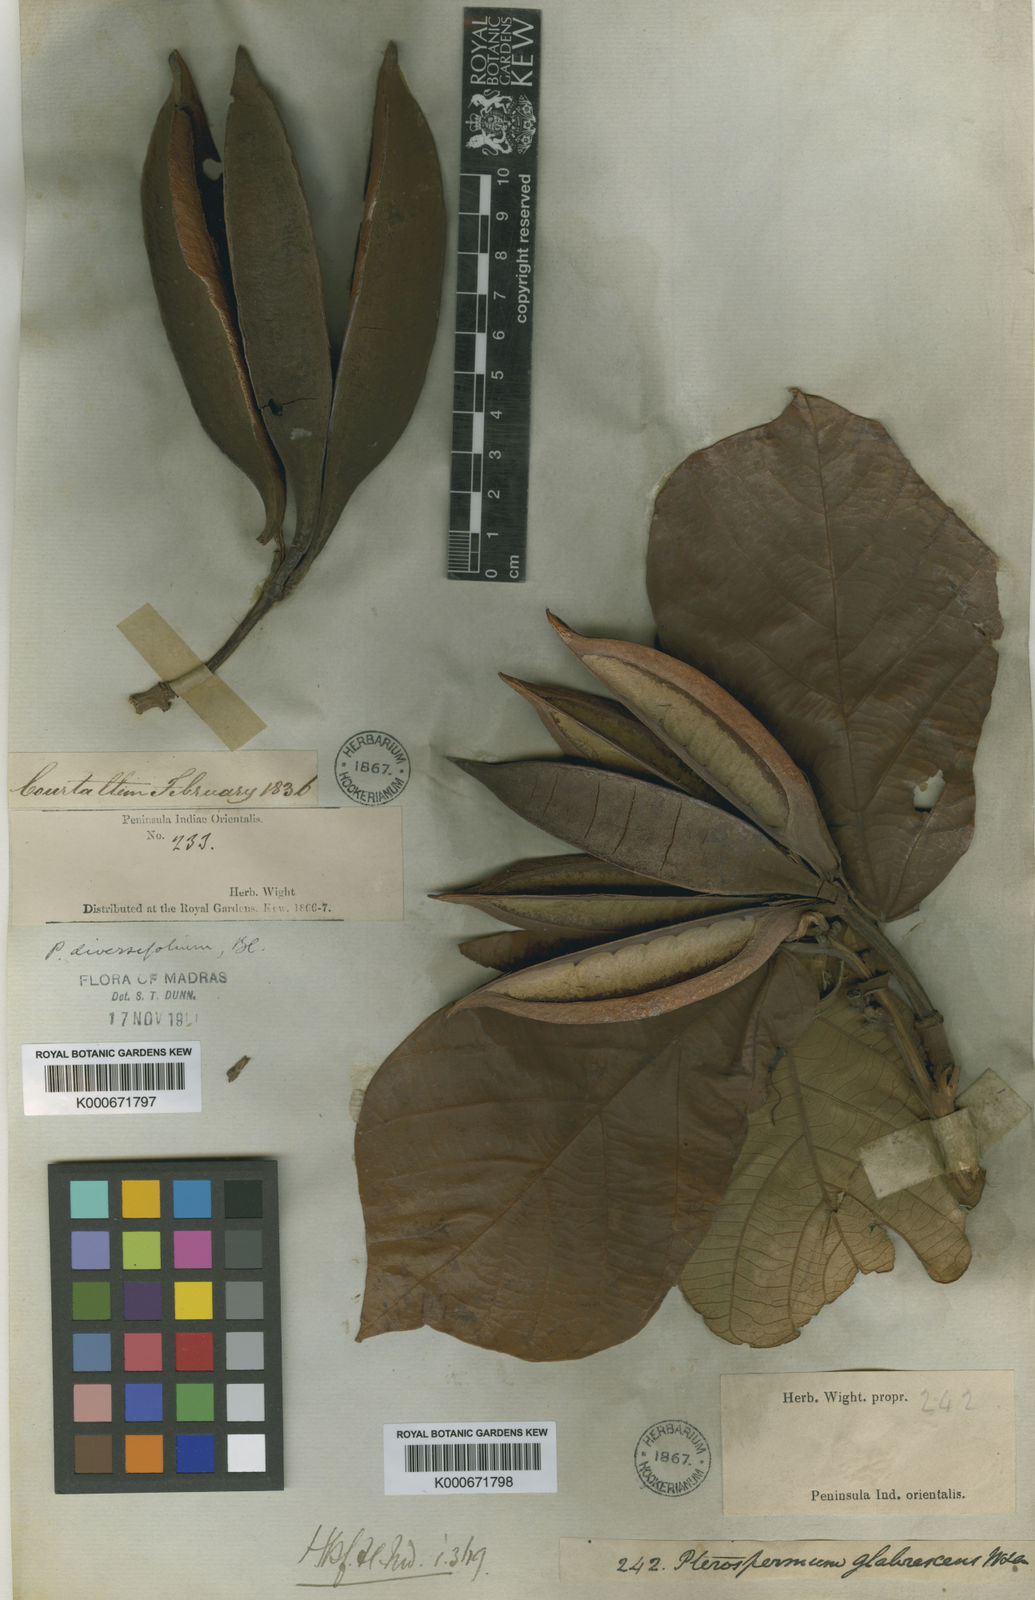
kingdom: Plantae
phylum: Tracheophyta
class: Magnoliopsida
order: Malvales
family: Malvaceae
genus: Pterospermum
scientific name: Pterospermum diversifolium
